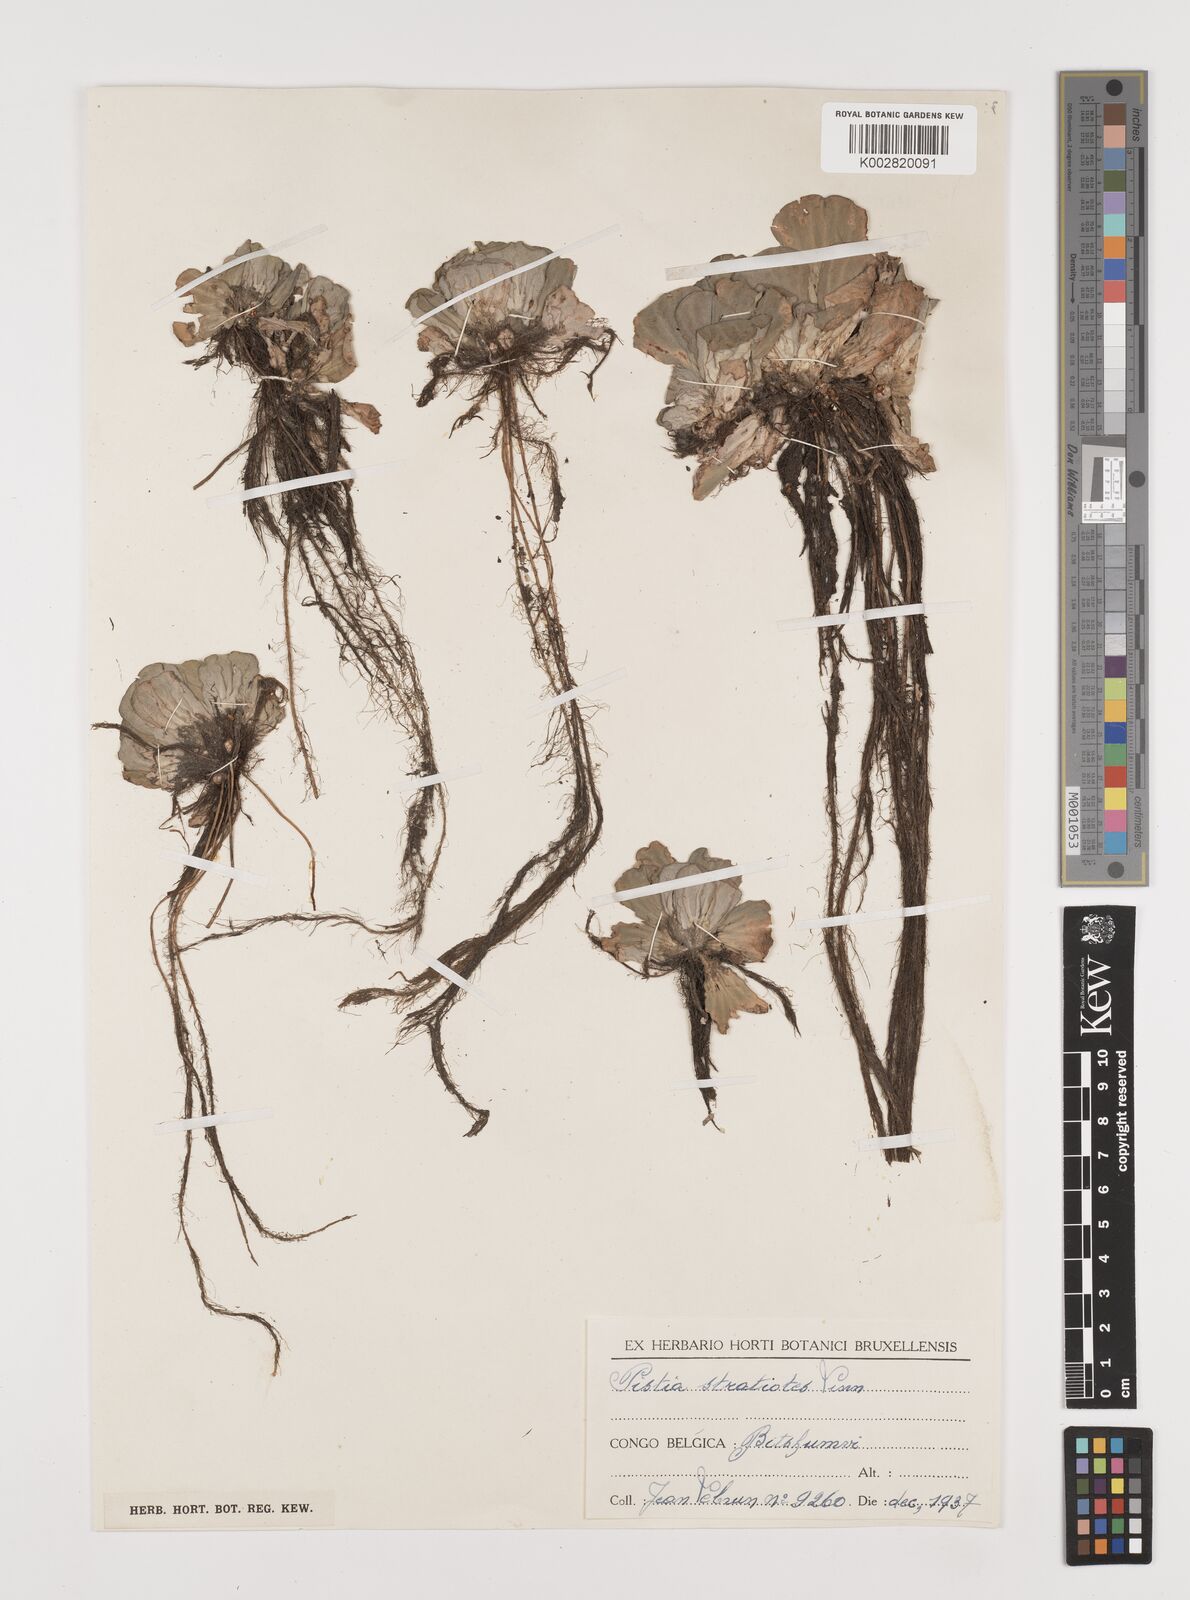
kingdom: Plantae
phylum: Tracheophyta
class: Liliopsida
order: Alismatales
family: Araceae
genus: Pistia
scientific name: Pistia stratiotes
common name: Water lettuce
